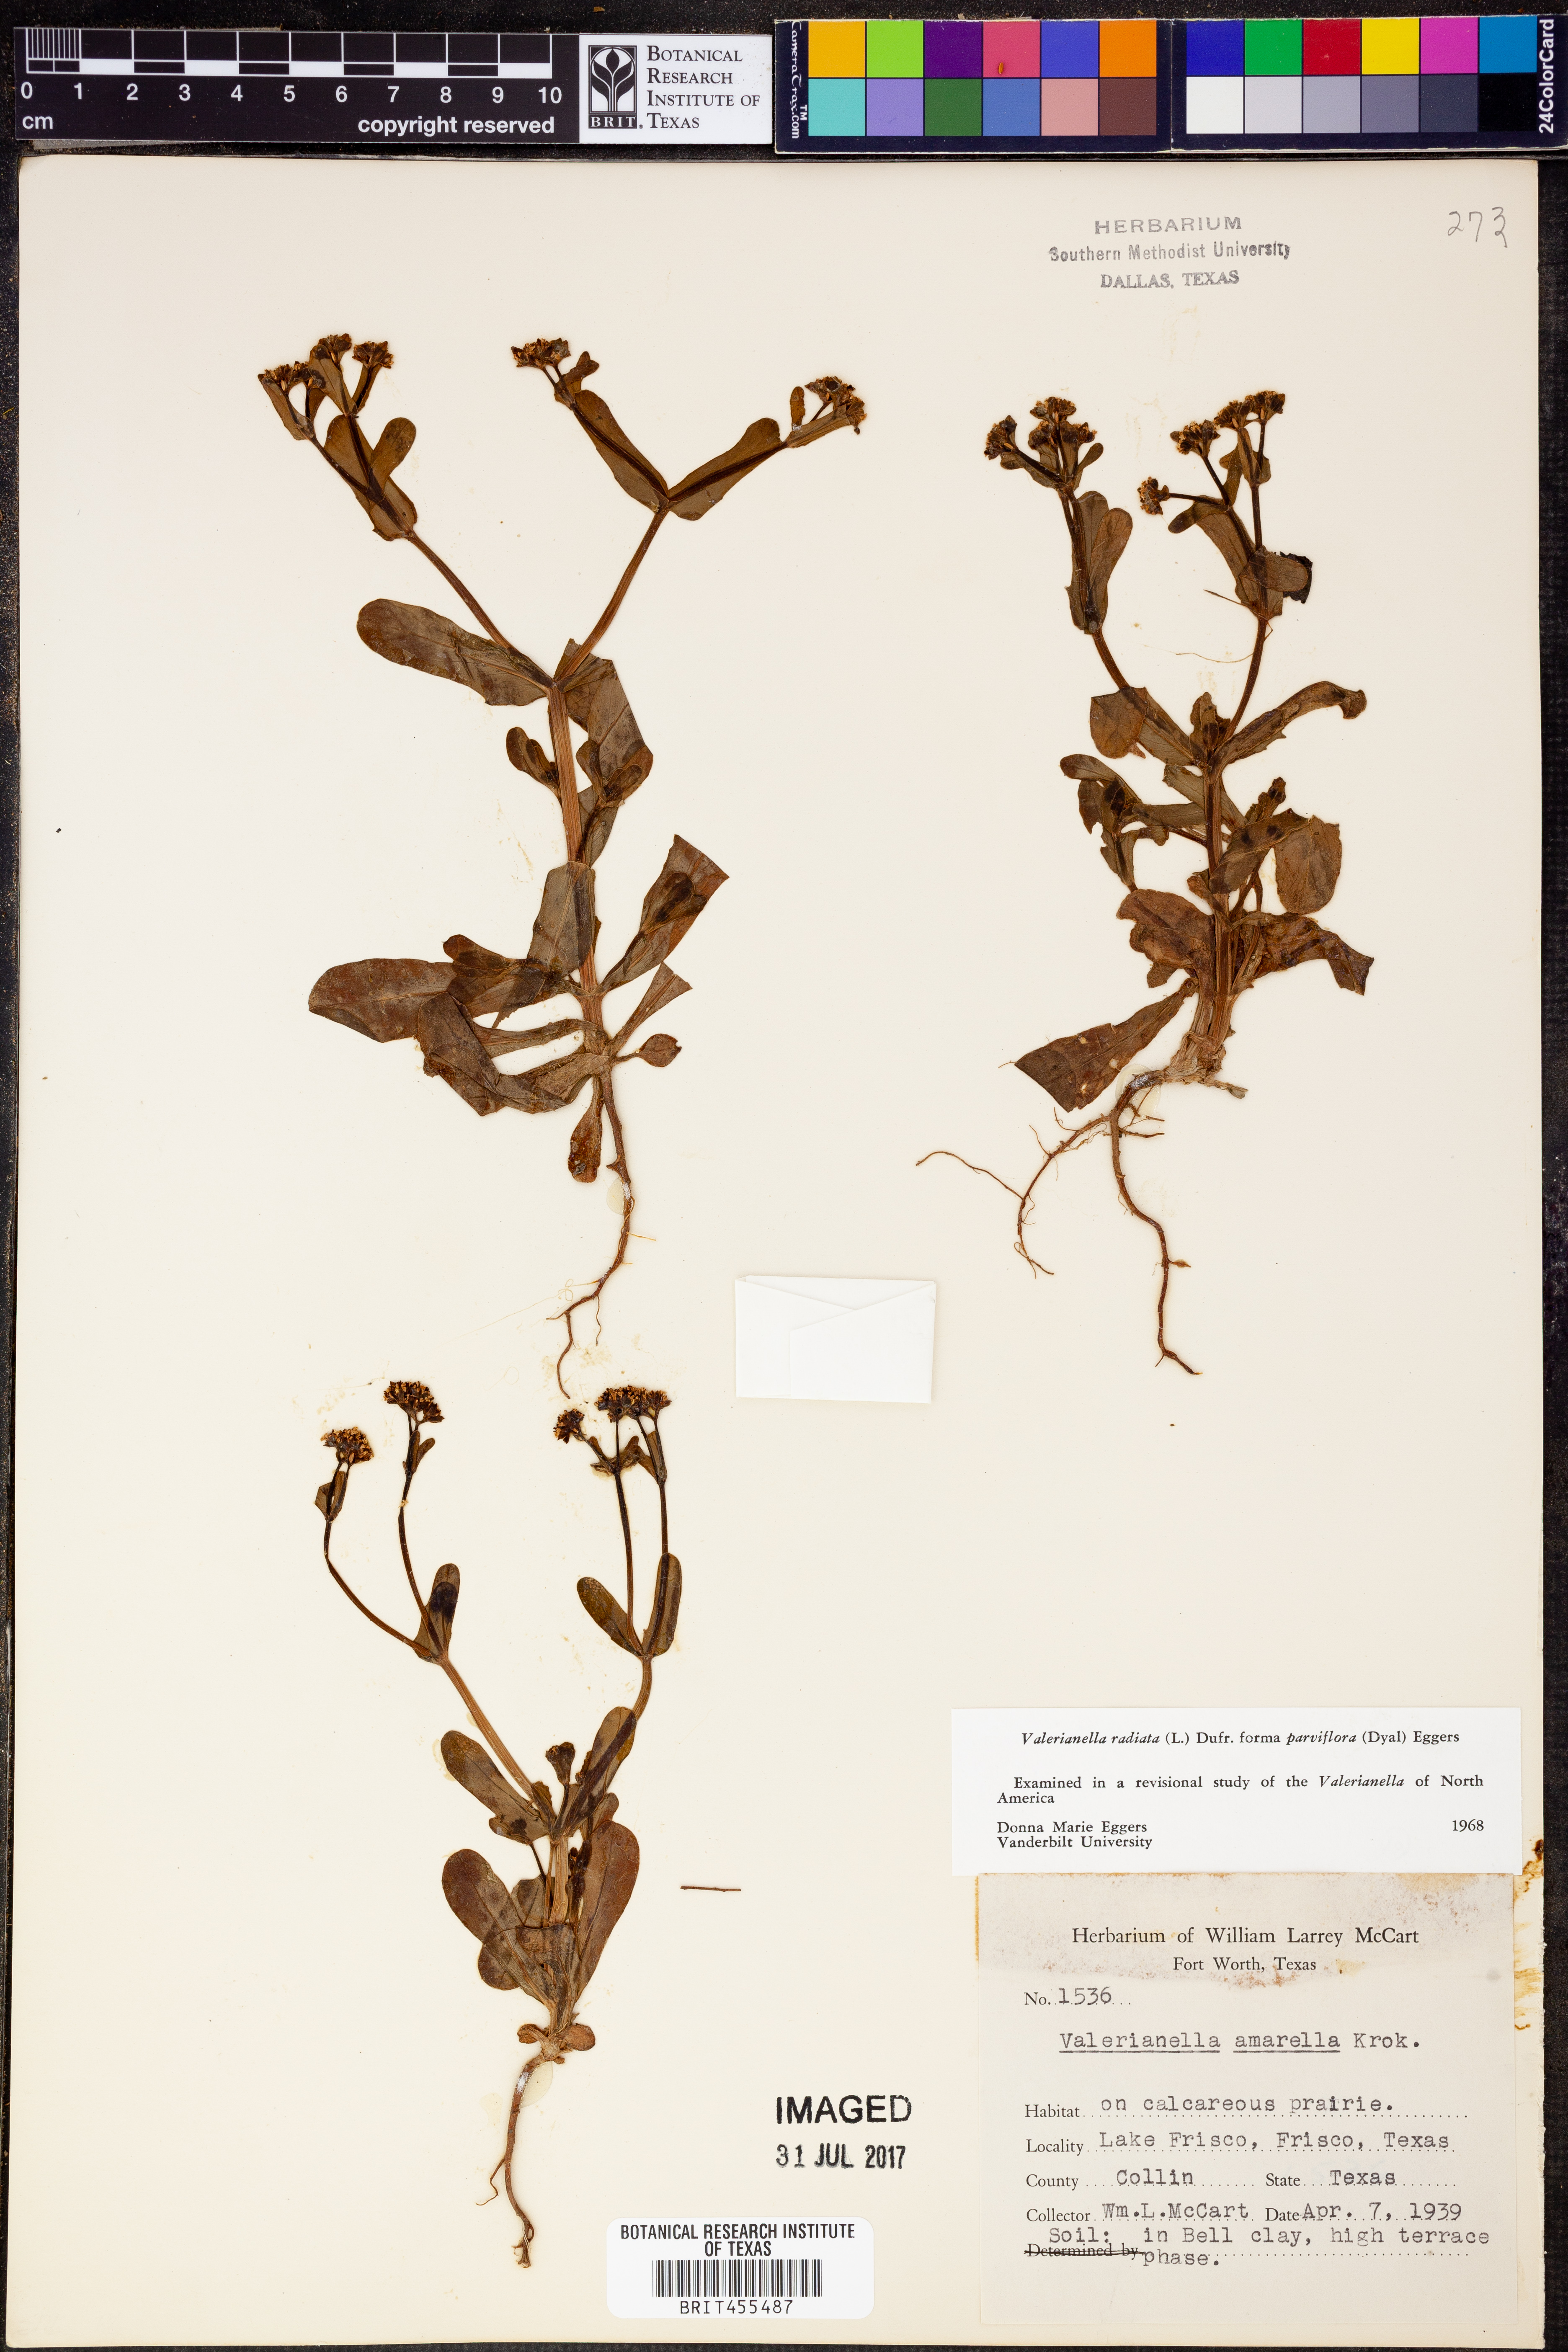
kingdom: Plantae
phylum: Tracheophyta
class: Magnoliopsida
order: Dipsacales
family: Caprifoliaceae
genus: Valerianella
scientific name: Valerianella radiata
